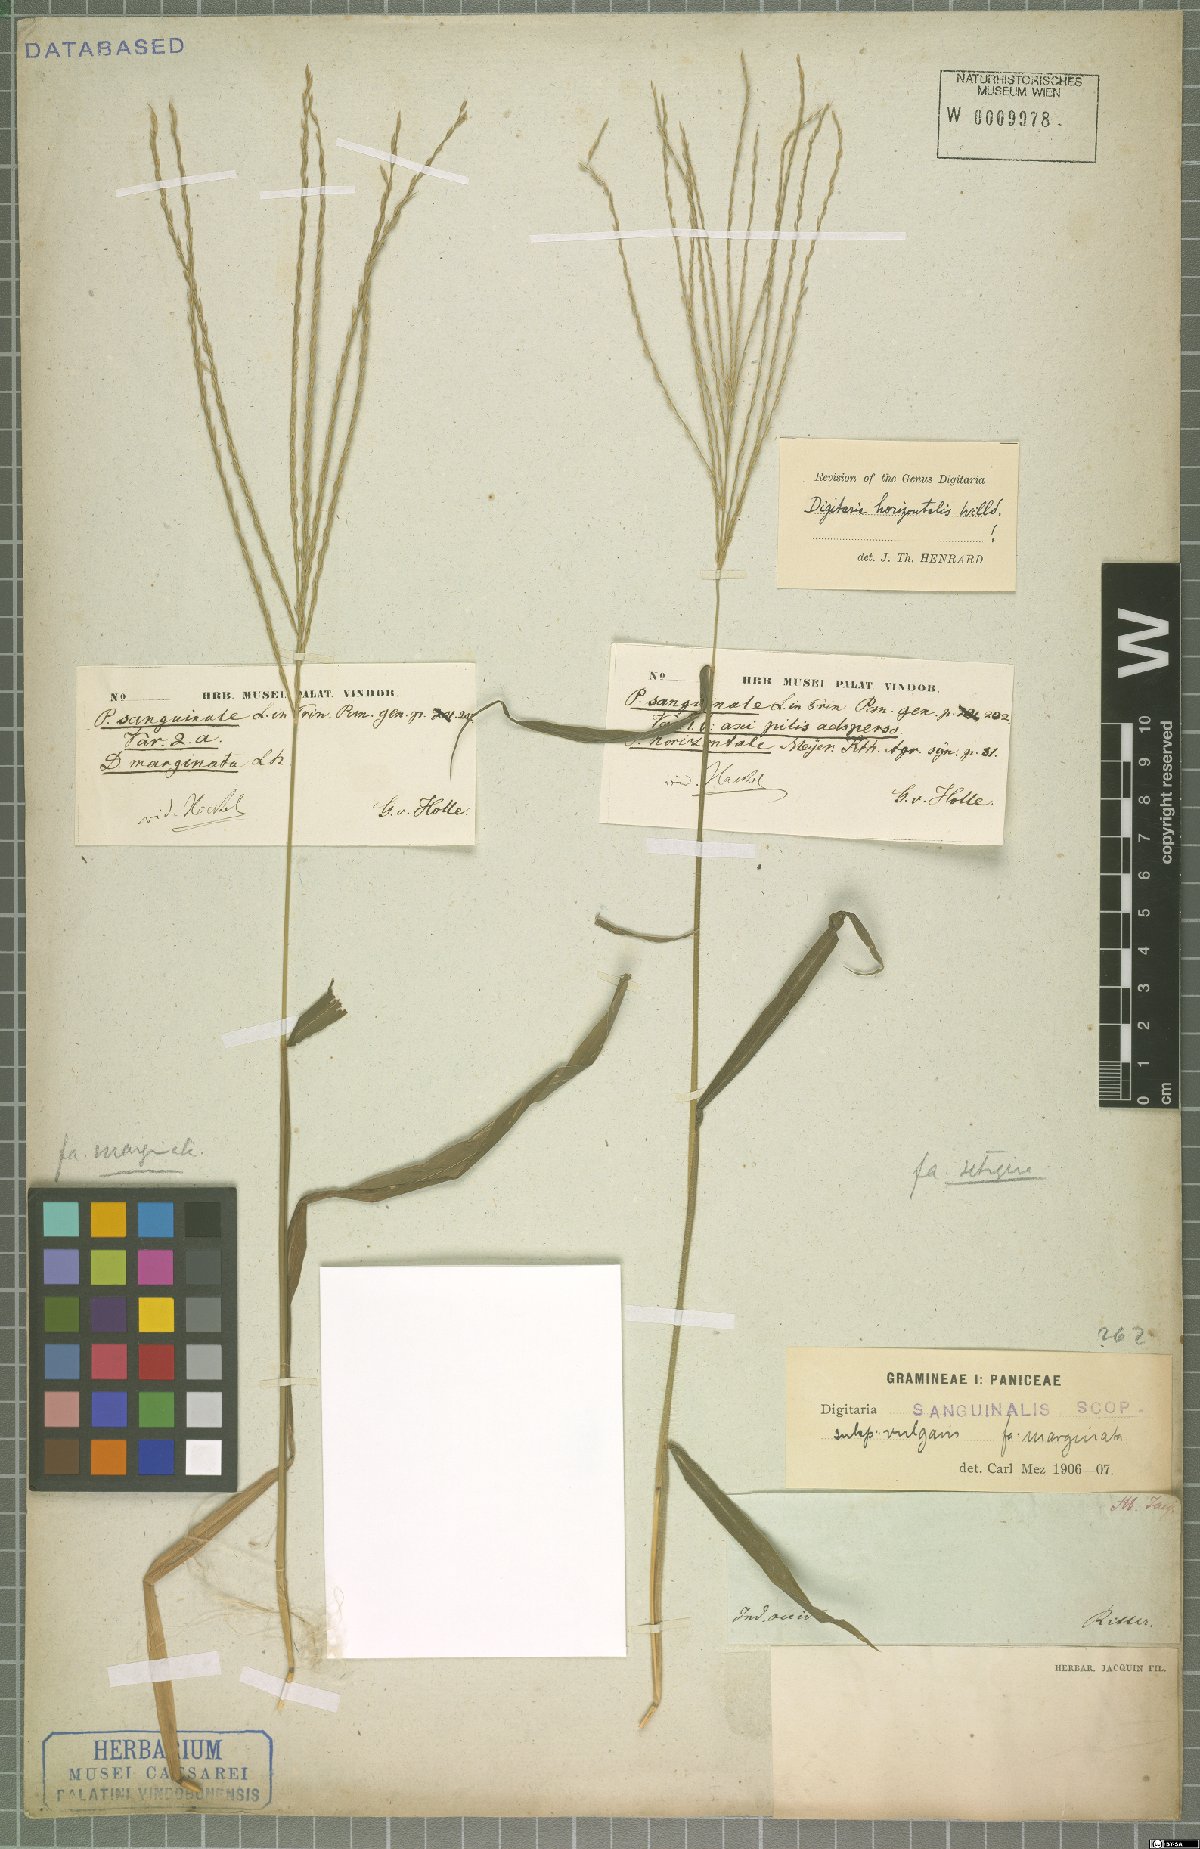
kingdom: Plantae
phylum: Tracheophyta
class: Liliopsida
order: Poales
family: Poaceae
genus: Digitaria
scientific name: Digitaria horizontalis
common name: Jamaican crabgrass
